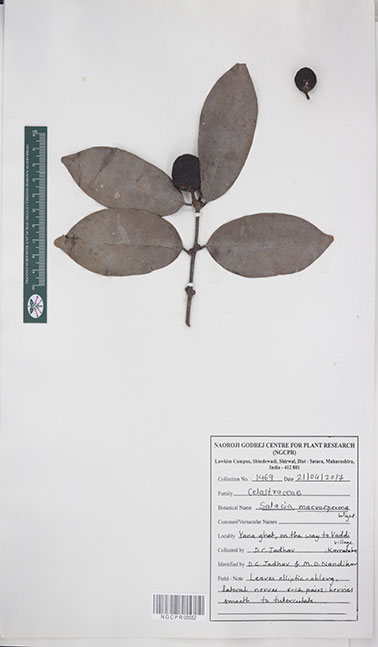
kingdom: Plantae
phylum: Tracheophyta
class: Magnoliopsida
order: Celastrales
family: Celastraceae
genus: Salacia
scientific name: Salacia macrosperma
